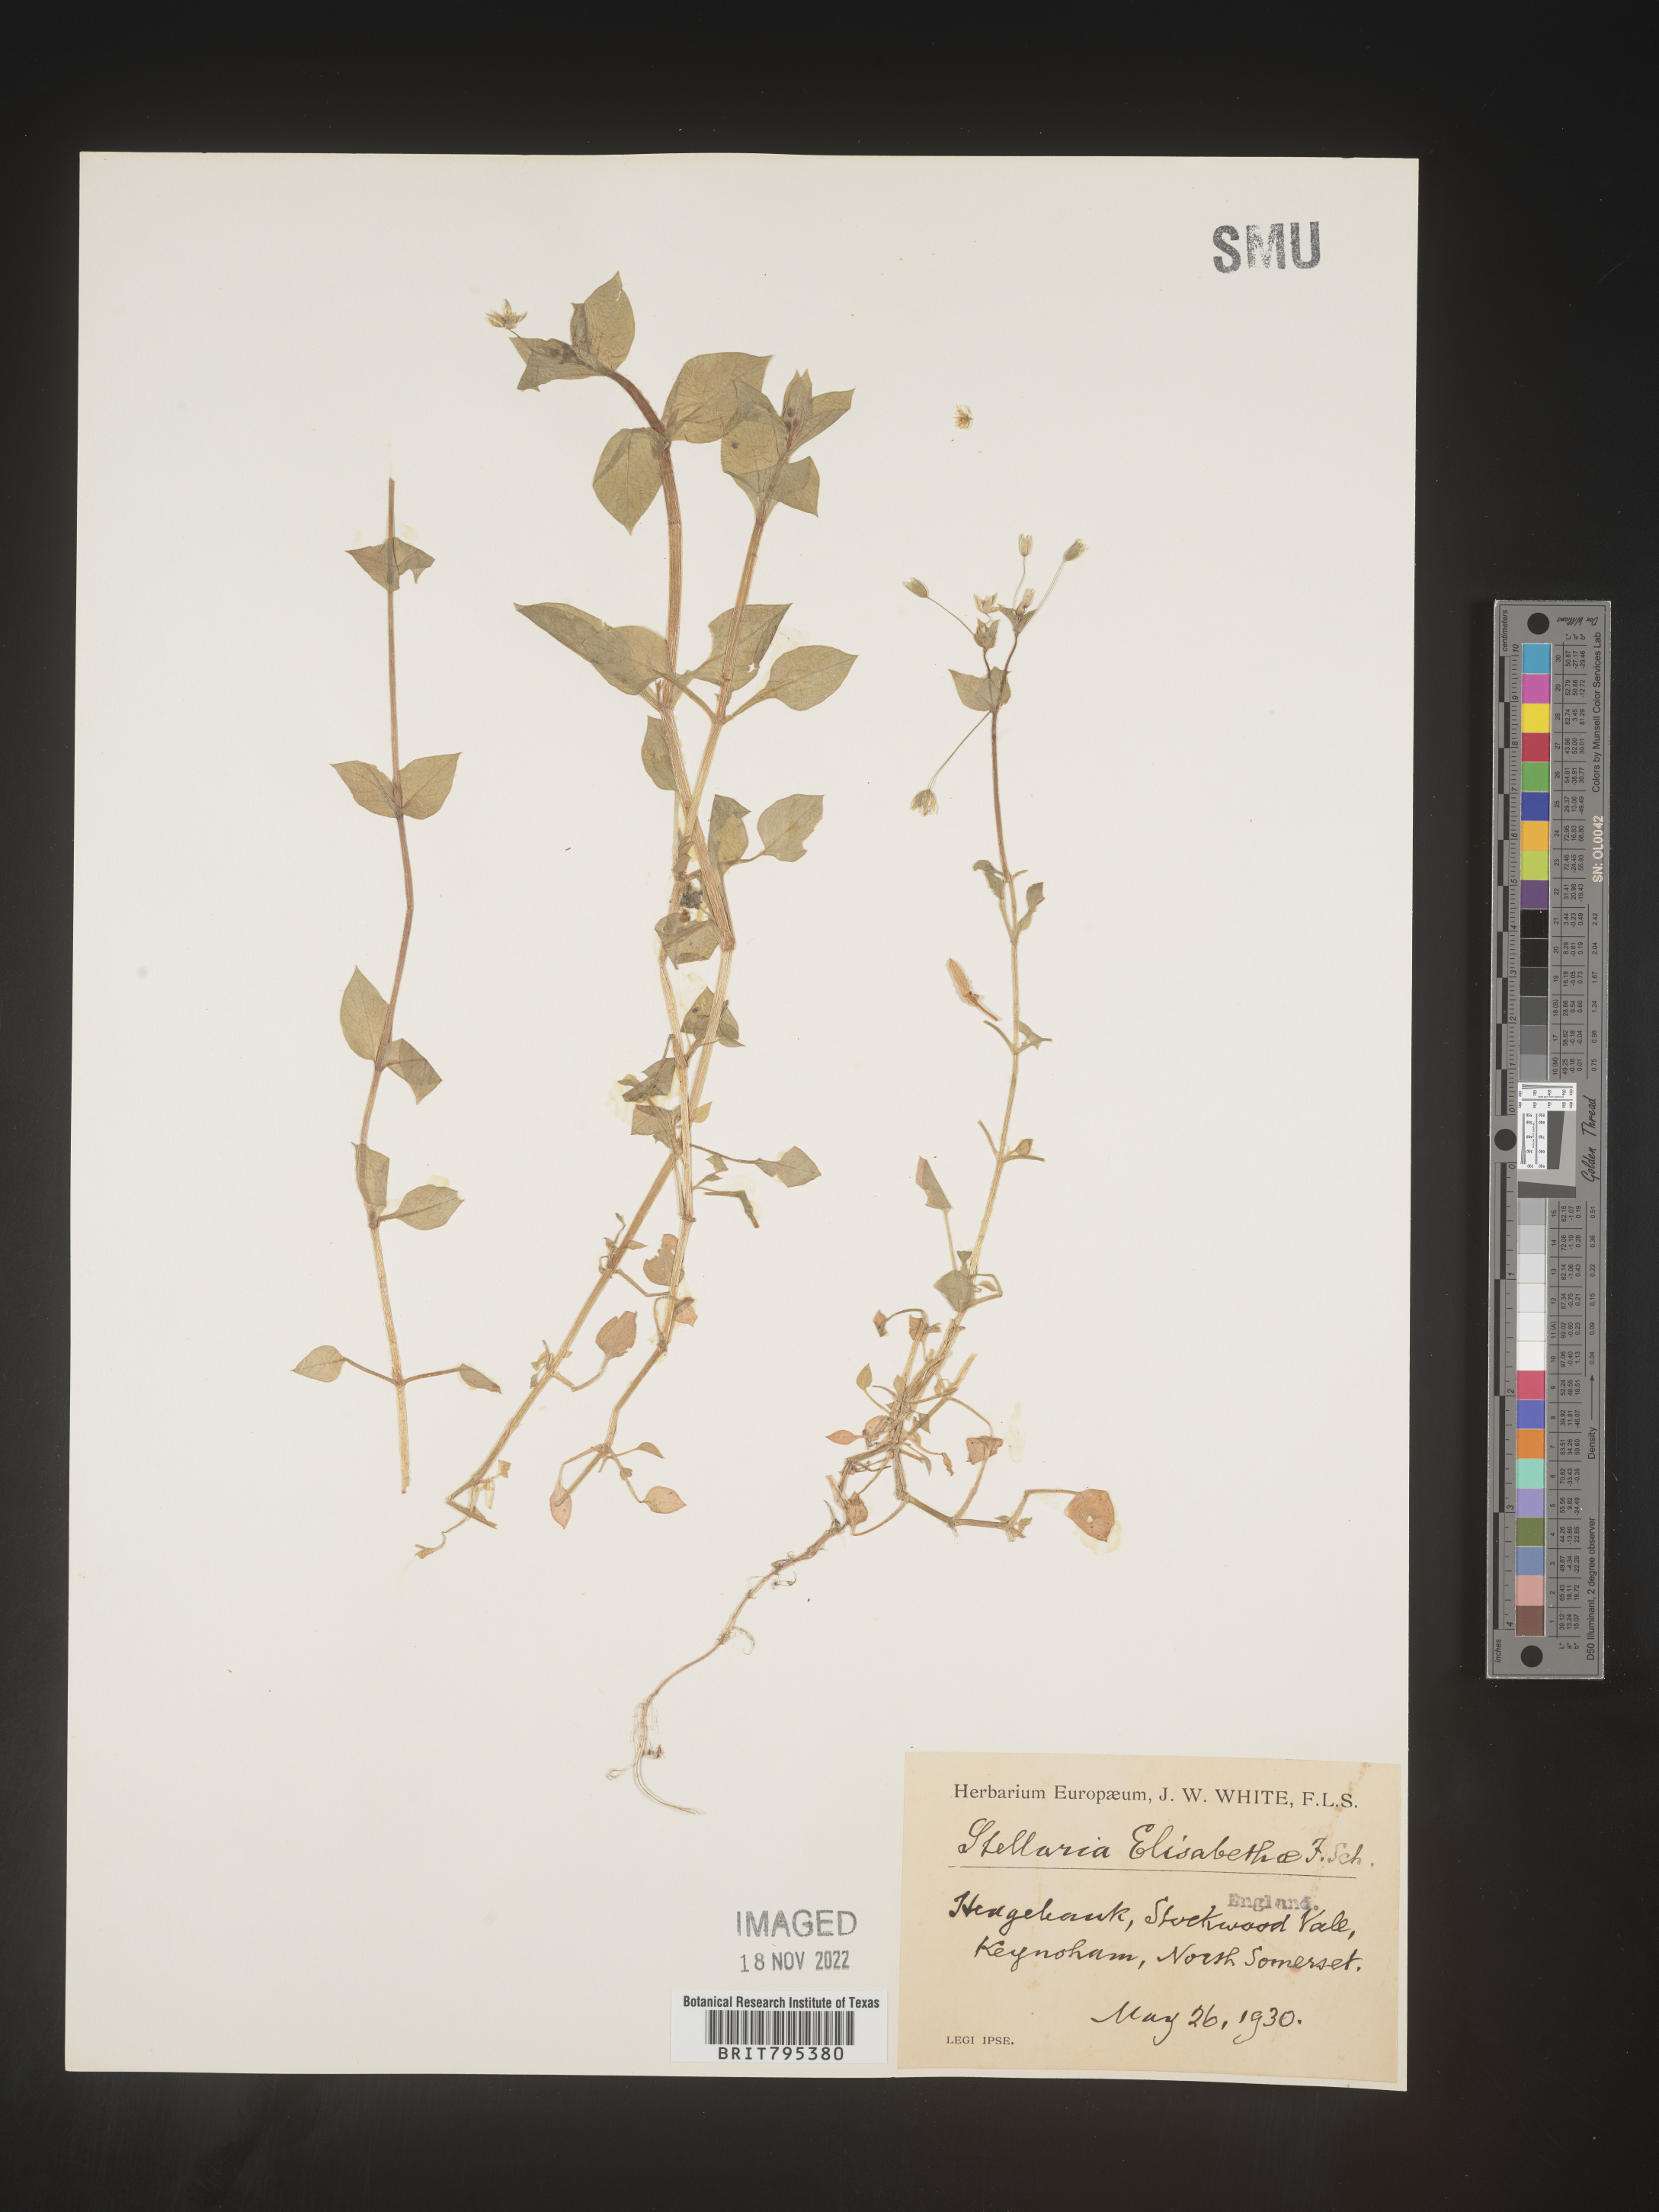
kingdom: Plantae
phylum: Tracheophyta
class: Magnoliopsida
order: Caryophyllales
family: Caryophyllaceae
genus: Stellaria
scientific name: Stellaria
